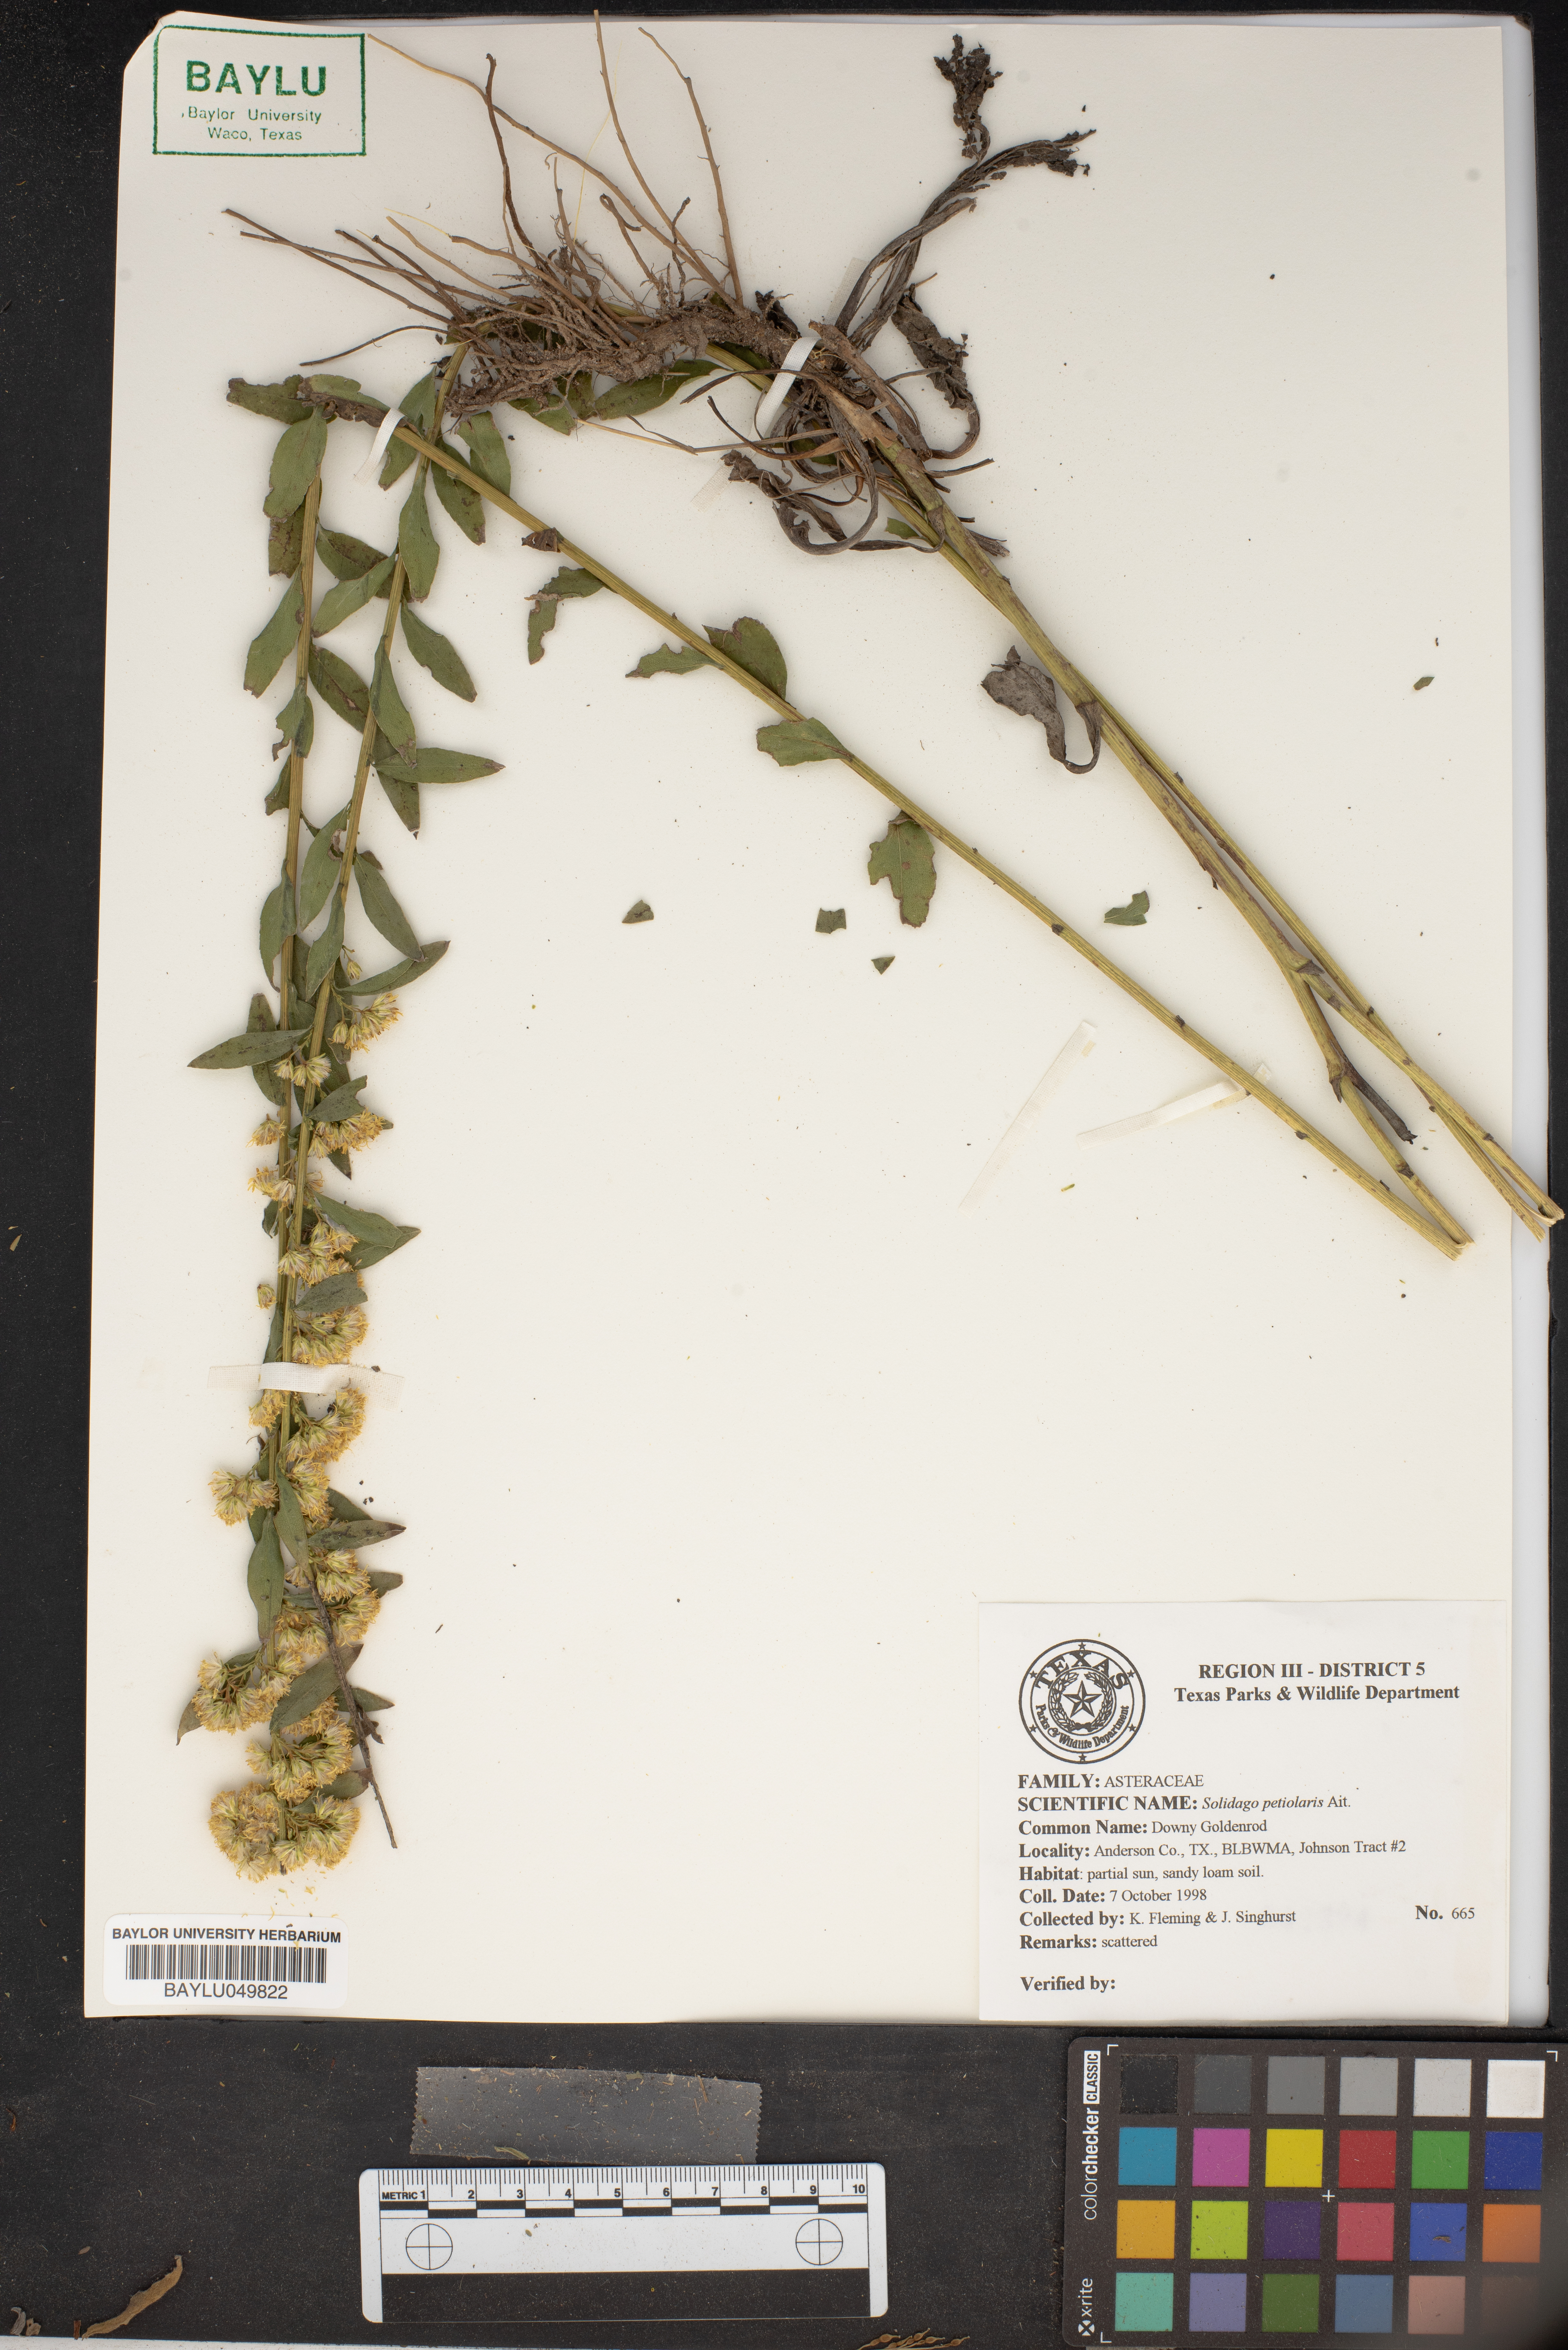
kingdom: Plantae
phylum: Tracheophyta
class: Magnoliopsida
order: Asterales
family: Asteraceae
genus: Solidago
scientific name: Solidago petiolaris
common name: Downy ragged goldenrod
